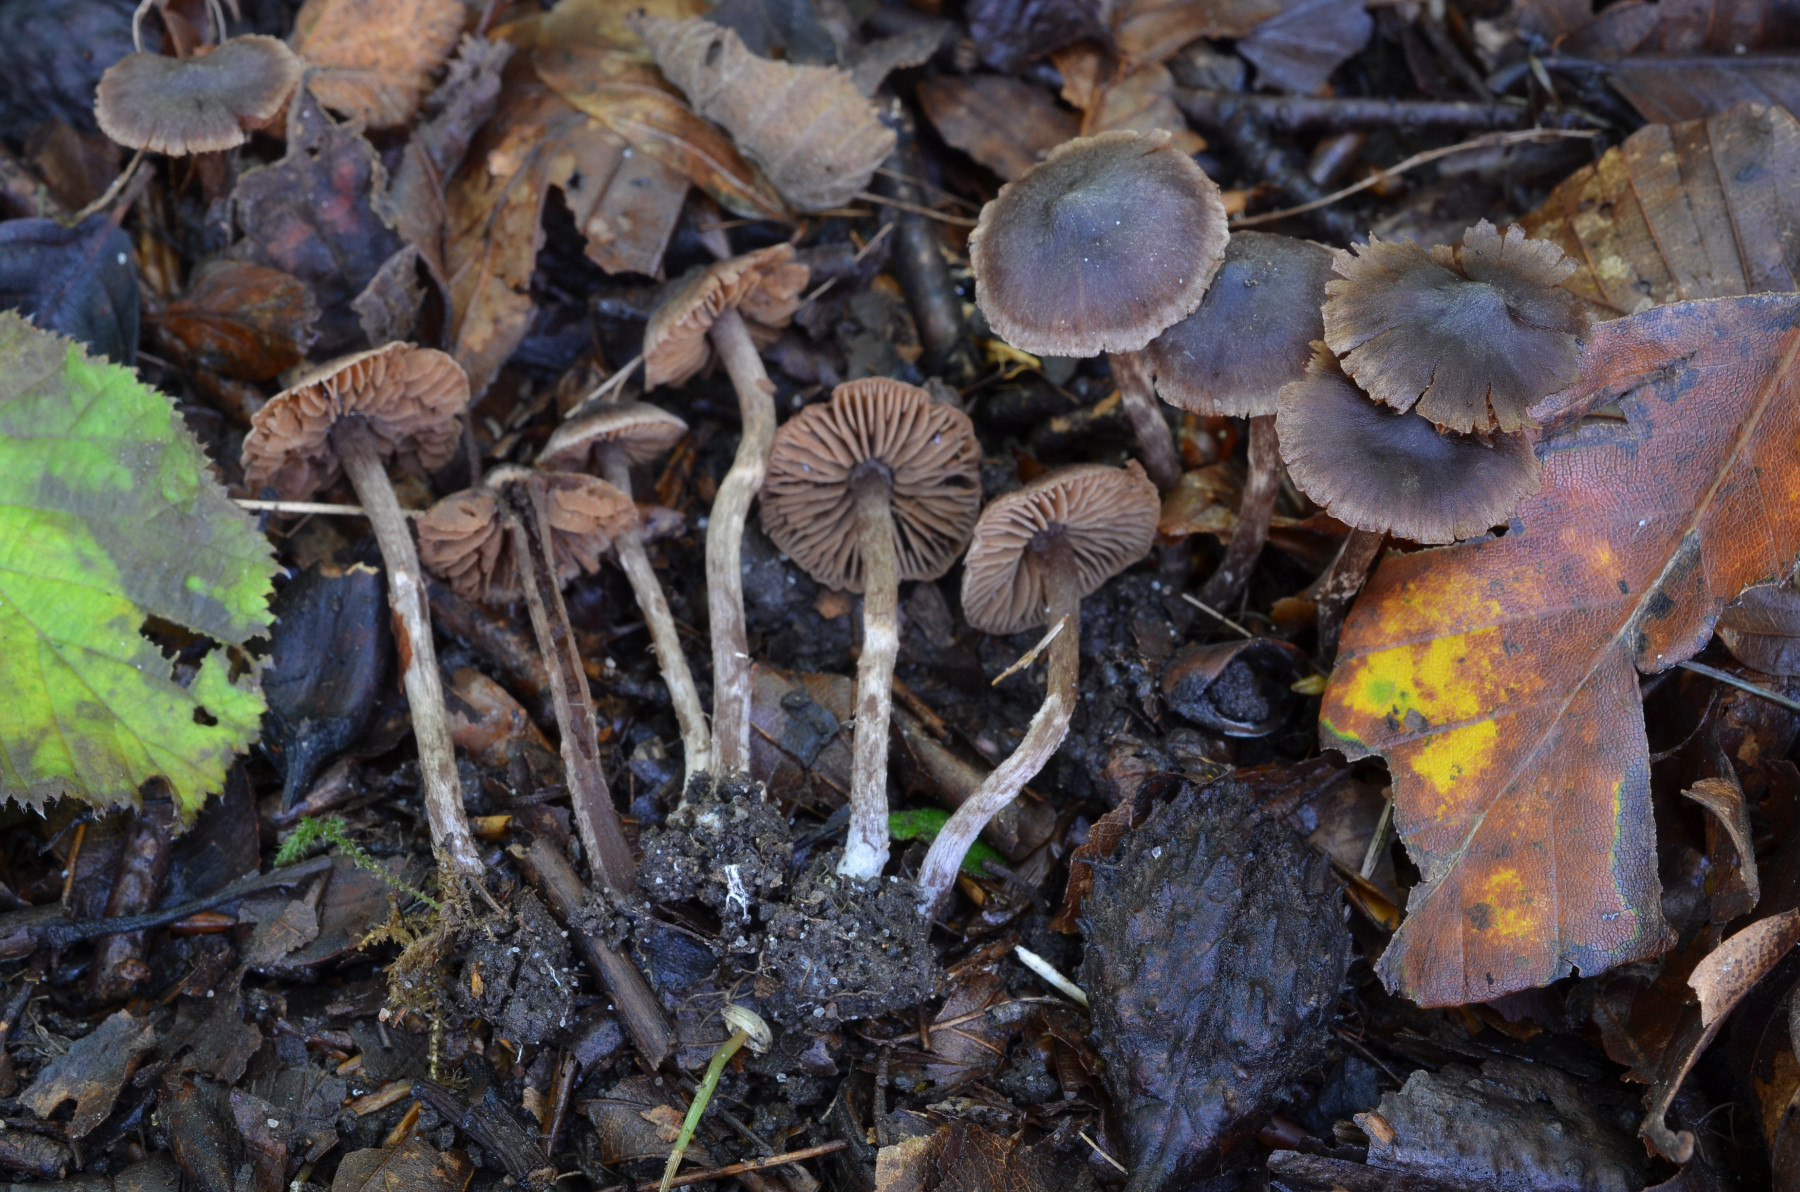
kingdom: Fungi
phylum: Basidiomycota
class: Agaricomycetes
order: Agaricales
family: Cortinariaceae
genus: Cortinarius
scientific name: Cortinarius fulvopaludosus
